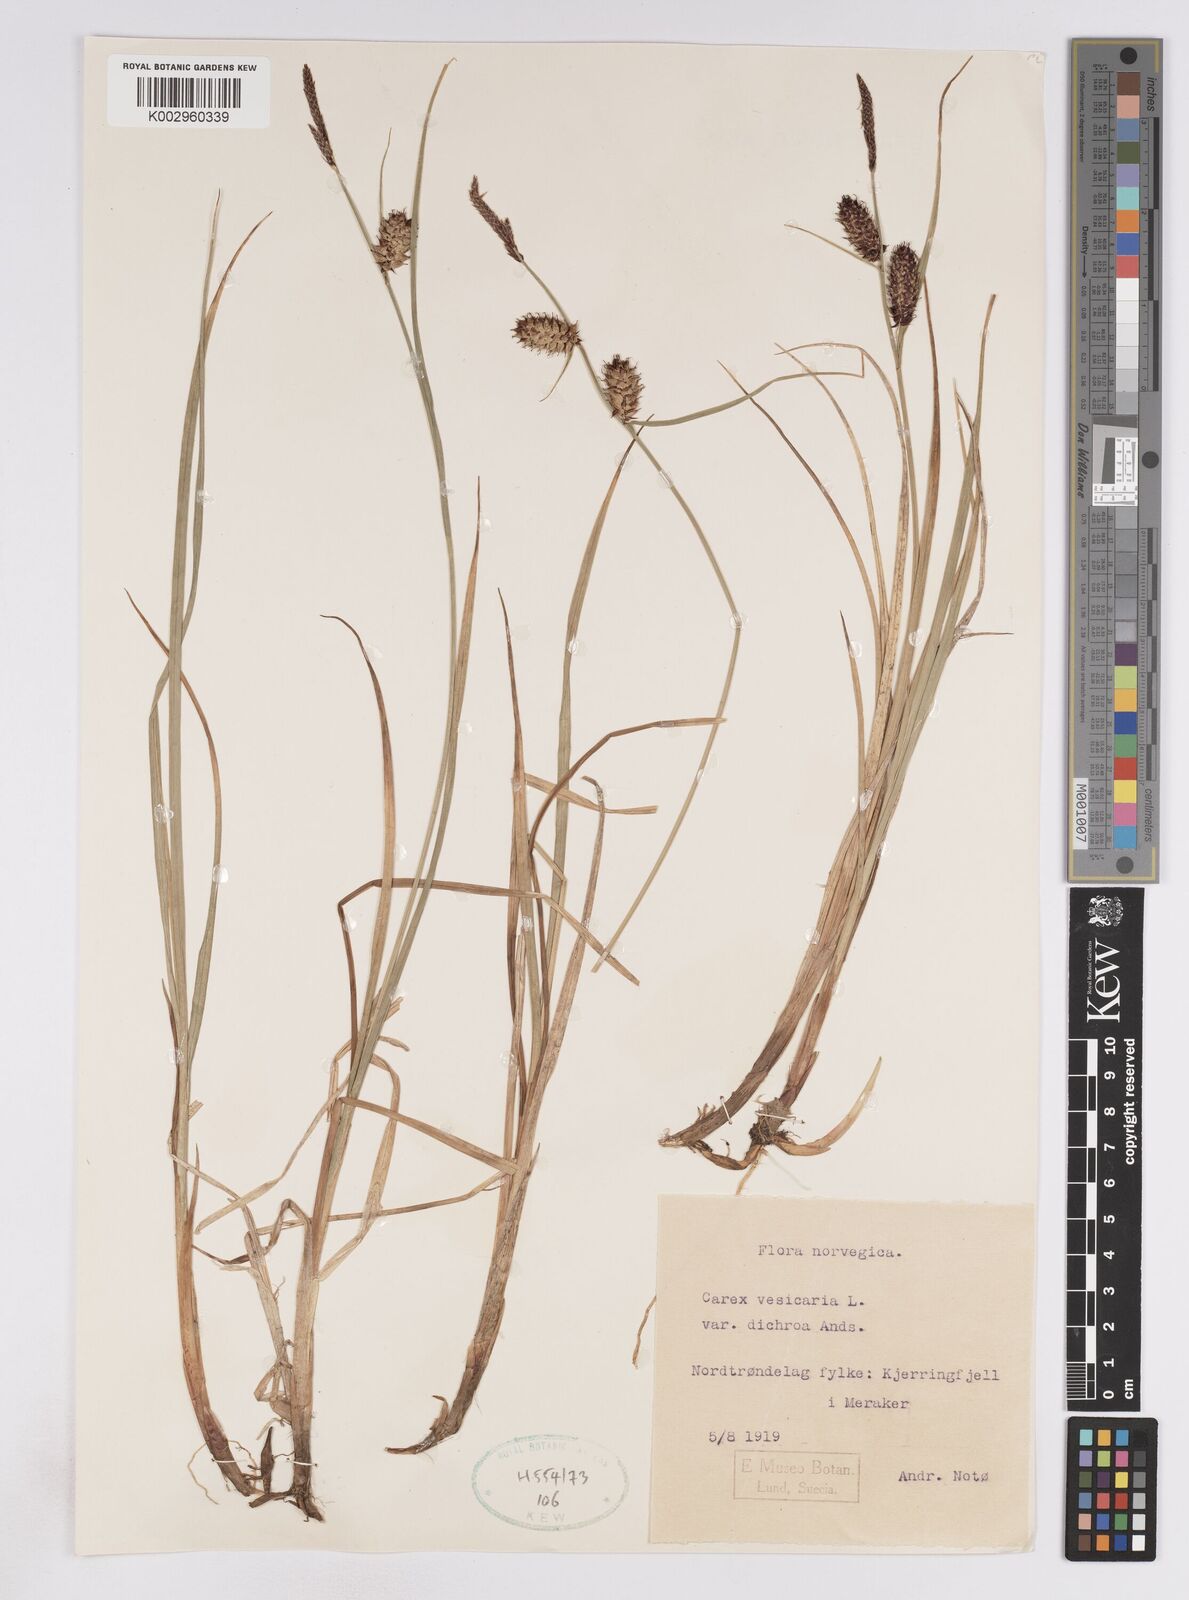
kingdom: Plantae
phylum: Tracheophyta
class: Liliopsida
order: Poales
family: Cyperaceae
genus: Carex
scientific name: Carex vesicaria
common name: Bladder-sedge
